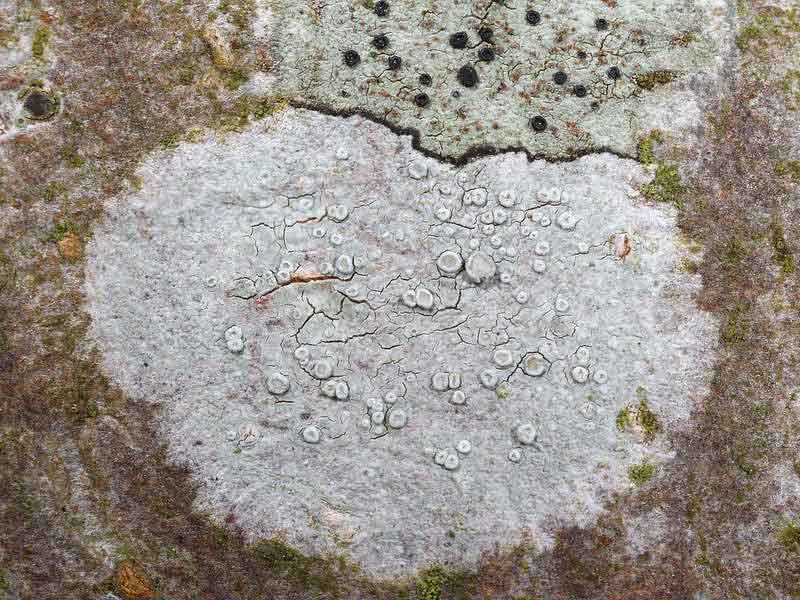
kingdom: Fungi
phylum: Ascomycota
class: Lecanoromycetes
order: Lecanorales
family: Lecanoraceae
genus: Glaucomaria
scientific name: Glaucomaria carpinea
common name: hviddugget kantskivelav
